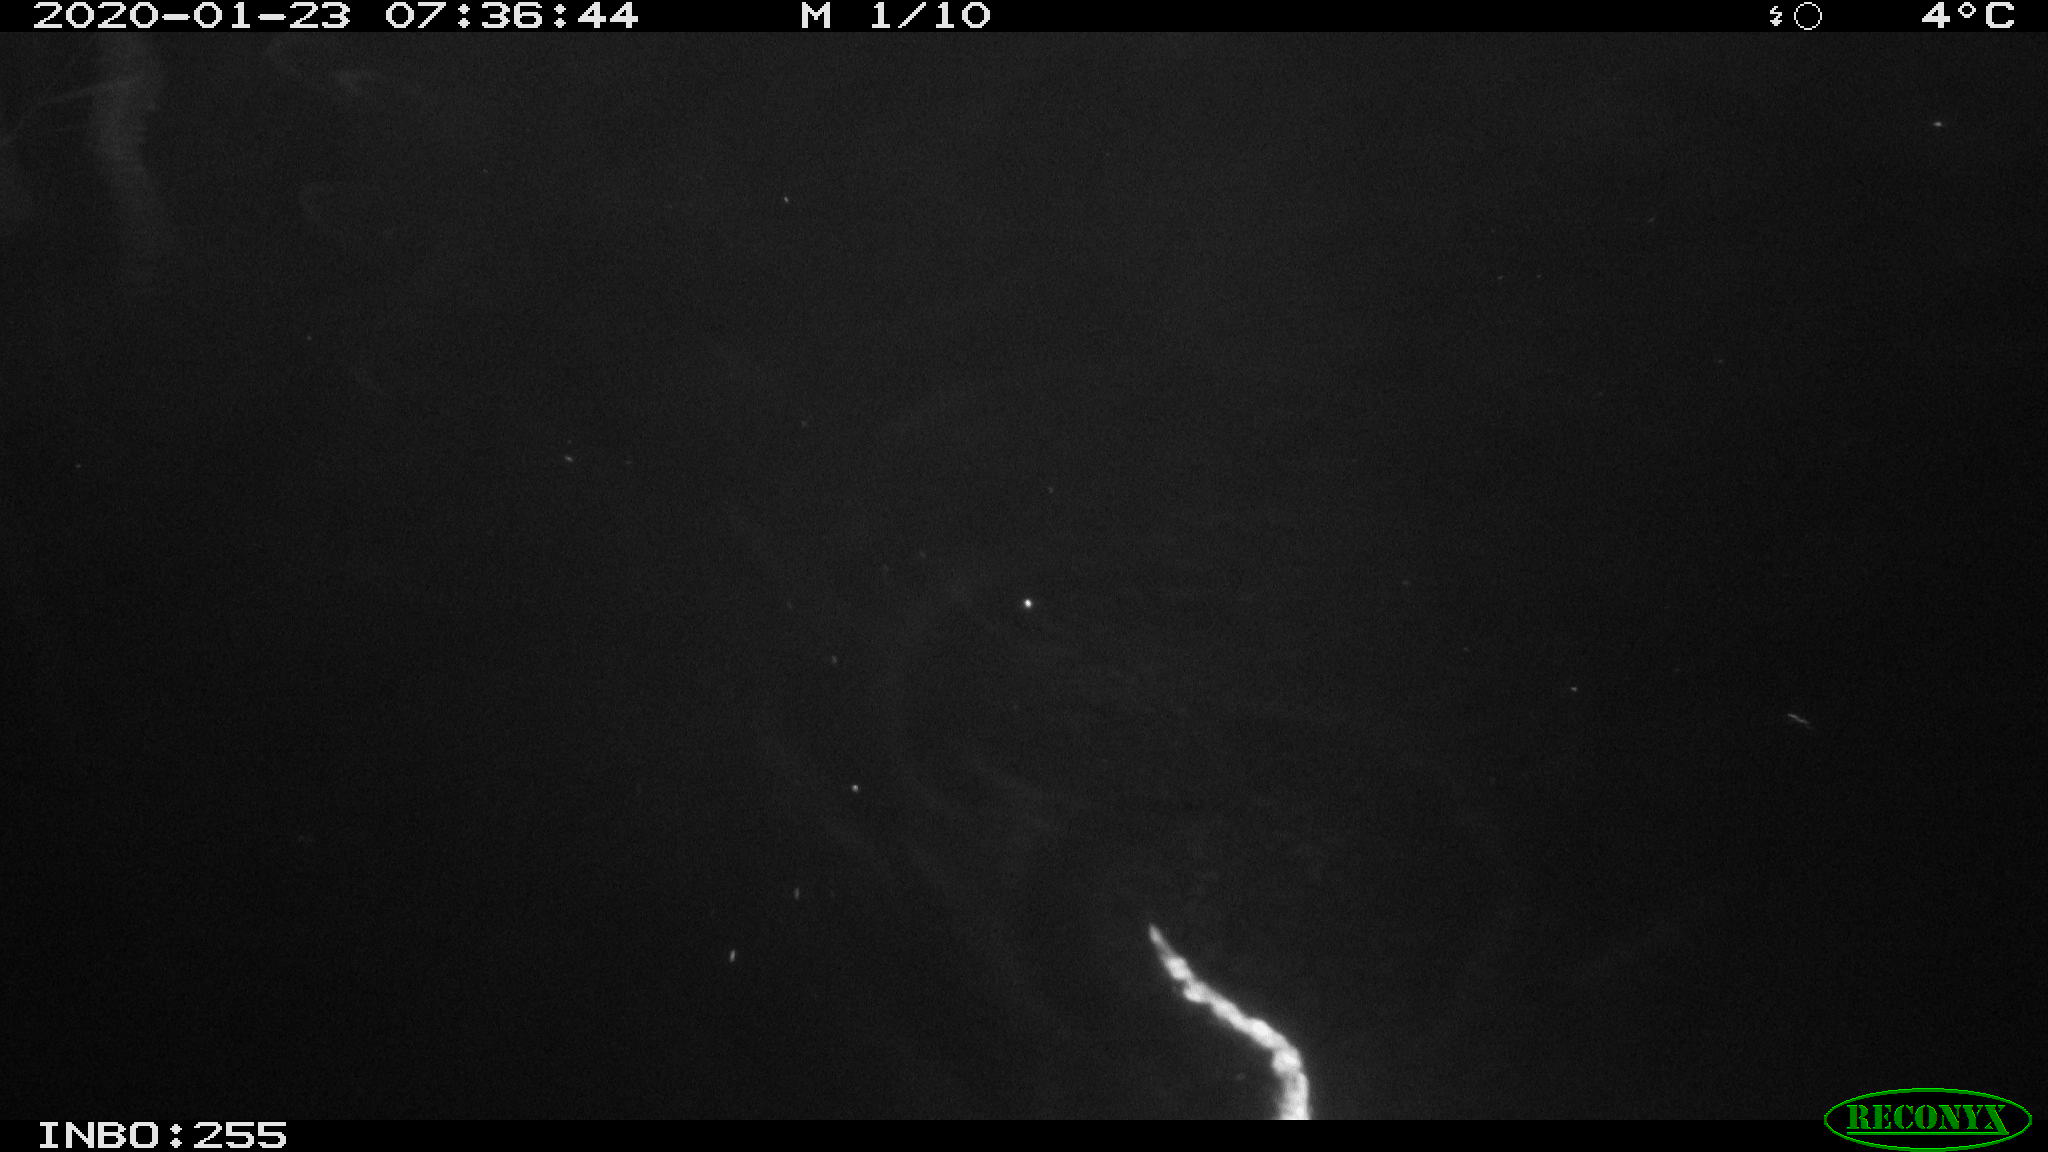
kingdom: Animalia
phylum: Chordata
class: Mammalia
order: Rodentia
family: Cricetidae
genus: Ondatra
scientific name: Ondatra zibethicus
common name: Muskrat
